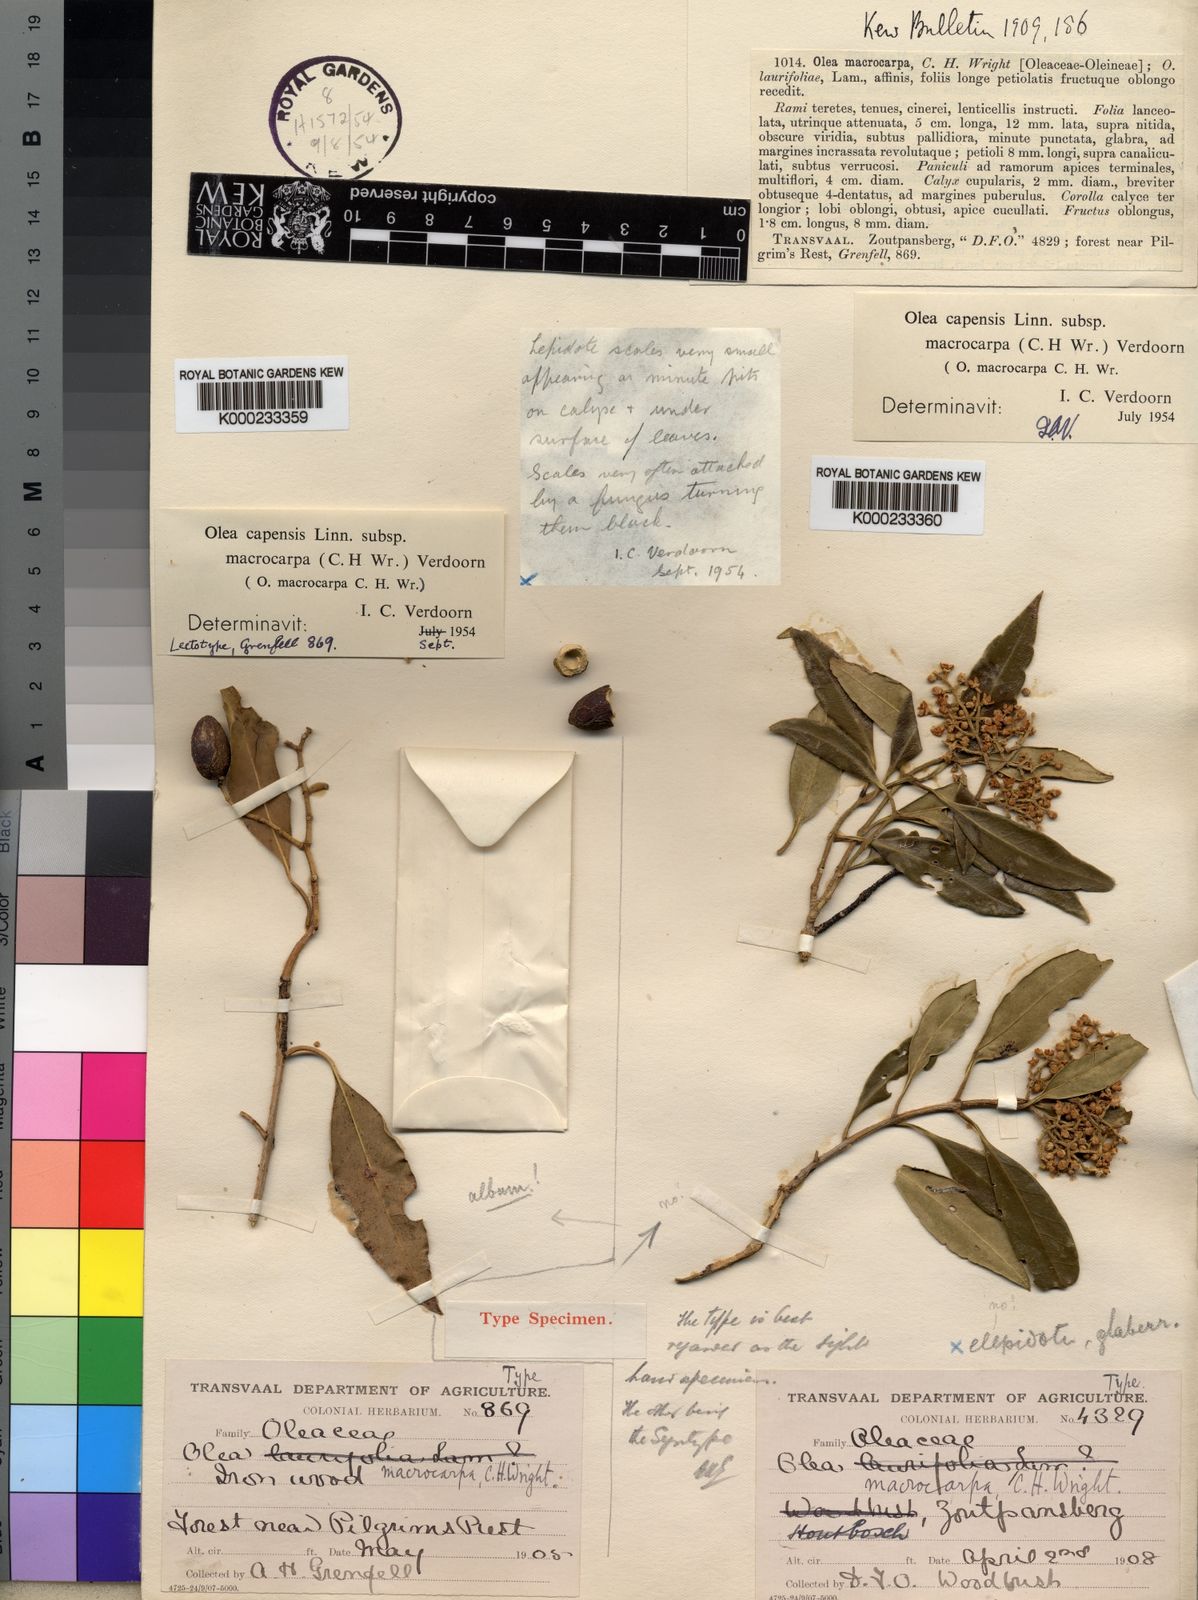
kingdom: Plantae
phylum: Tracheophyta
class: Magnoliopsida
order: Lamiales
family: Oleaceae
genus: Olea
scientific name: Olea capensis
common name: Black ironwood
